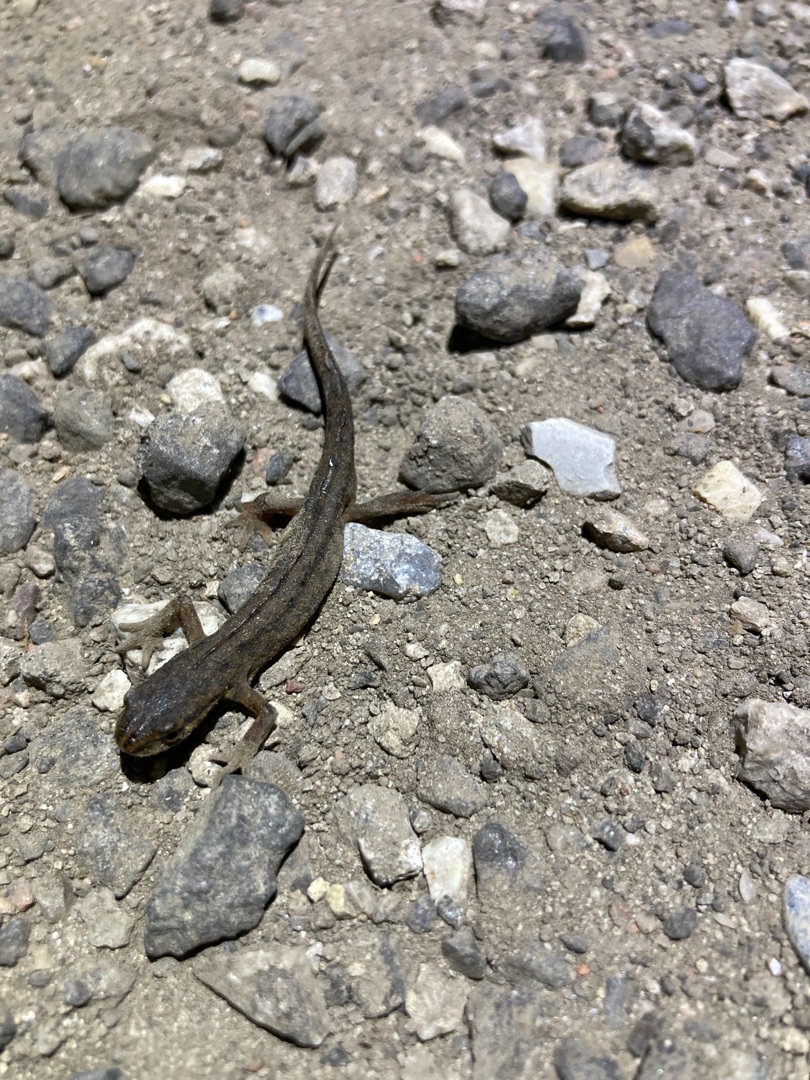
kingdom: Animalia
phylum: Chordata
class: Amphibia
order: Caudata
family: Salamandridae
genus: Lissotriton
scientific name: Lissotriton vulgaris
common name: Lille vandsalamander
